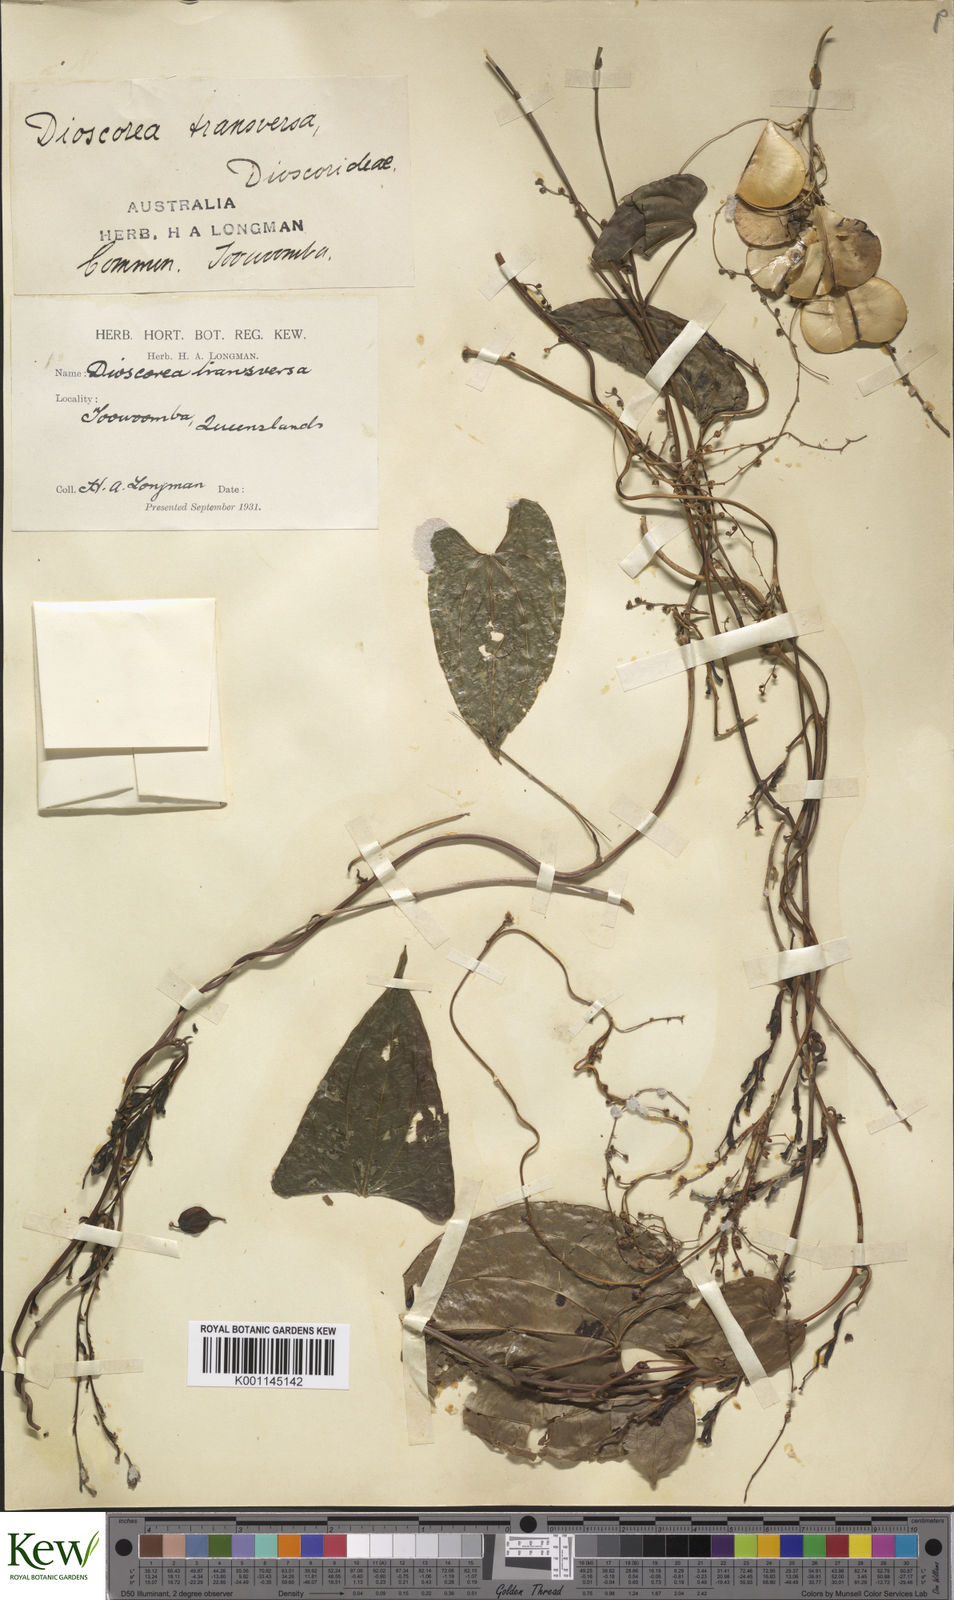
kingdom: Plantae
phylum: Tracheophyta
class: Liliopsida
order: Dioscoreales
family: Dioscoreaceae
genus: Dioscorea
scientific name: Dioscorea transversa
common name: Long yam
